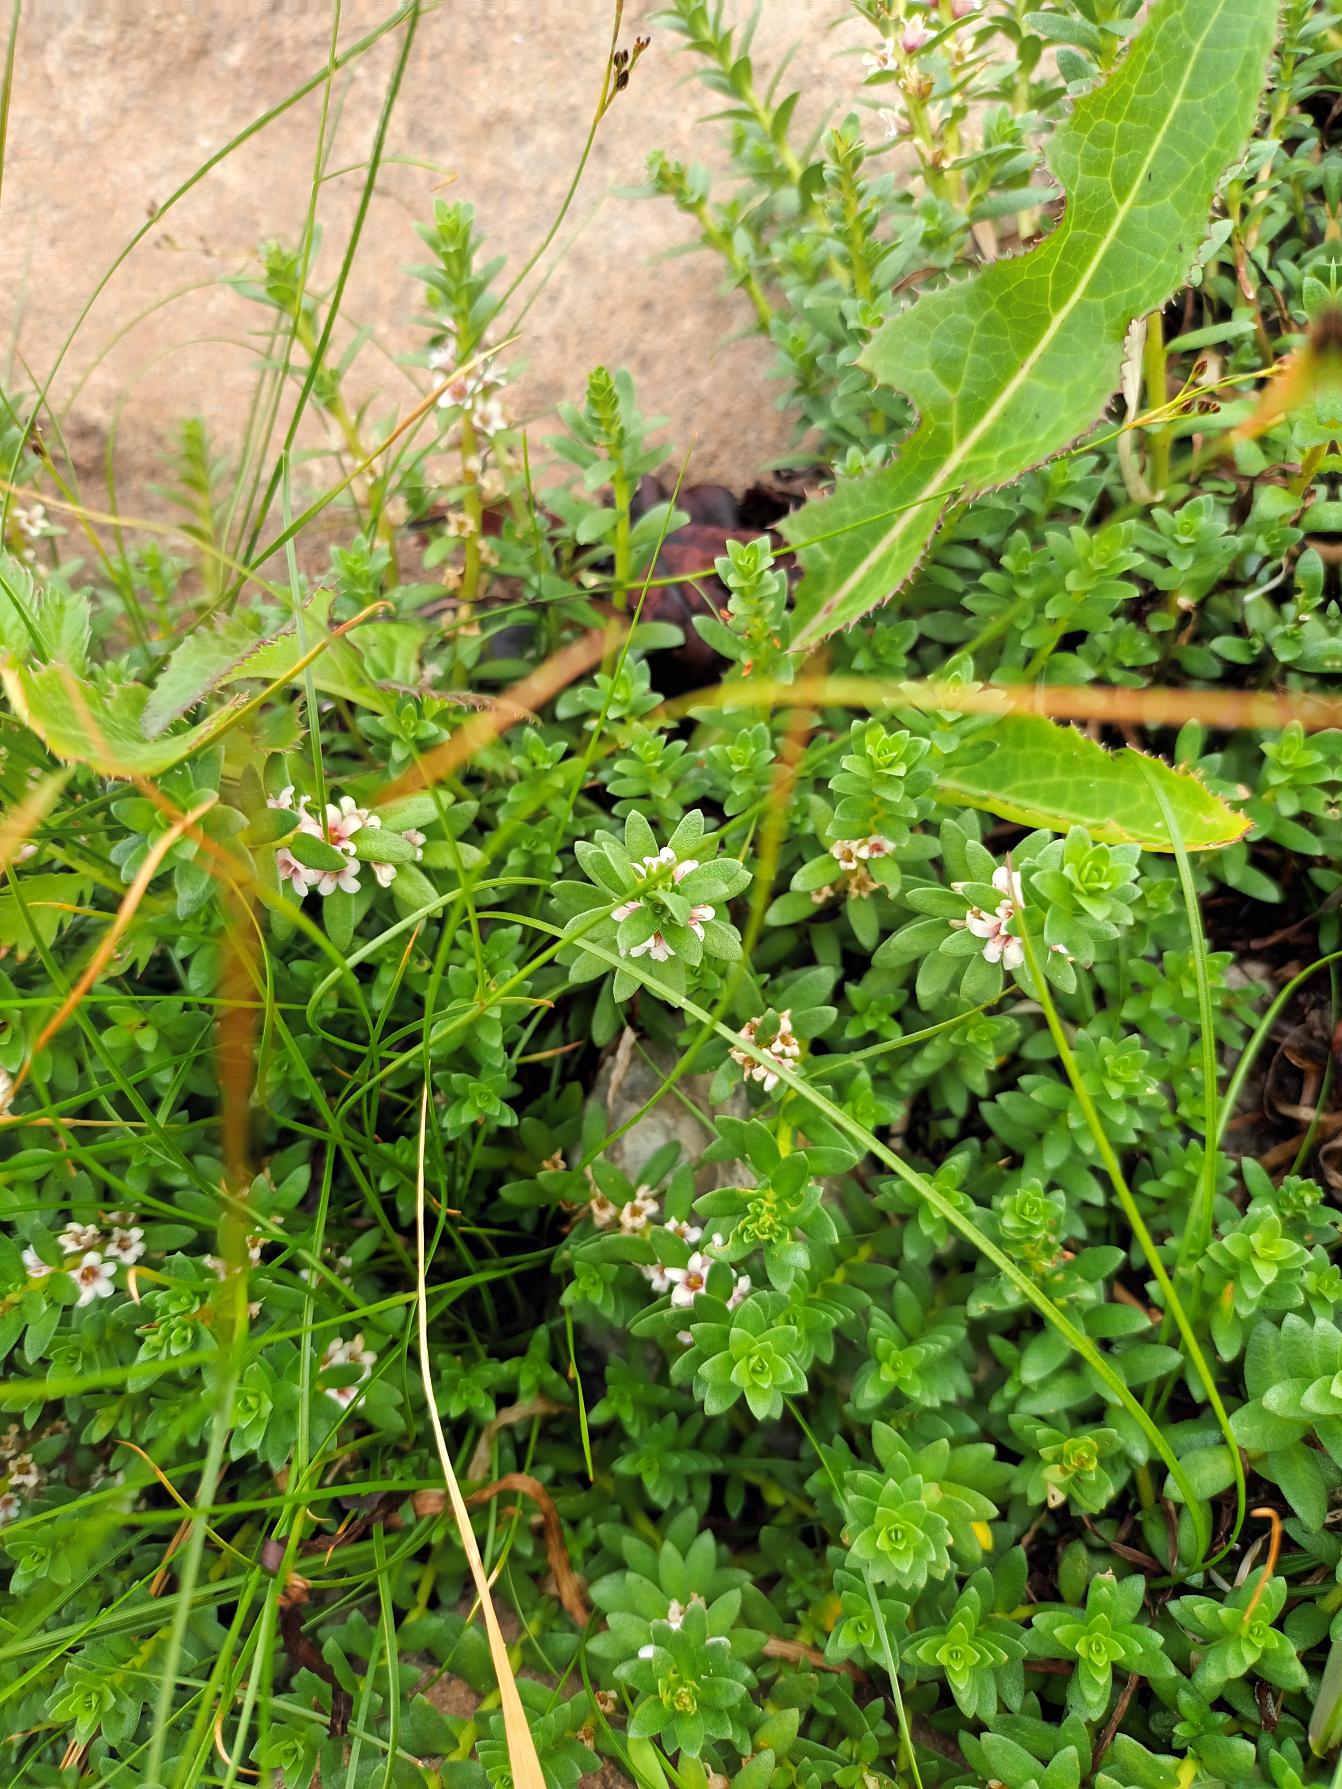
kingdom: Plantae
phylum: Tracheophyta
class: Magnoliopsida
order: Ericales
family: Primulaceae
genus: Lysimachia
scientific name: Lysimachia maritima
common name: Sandkryb
